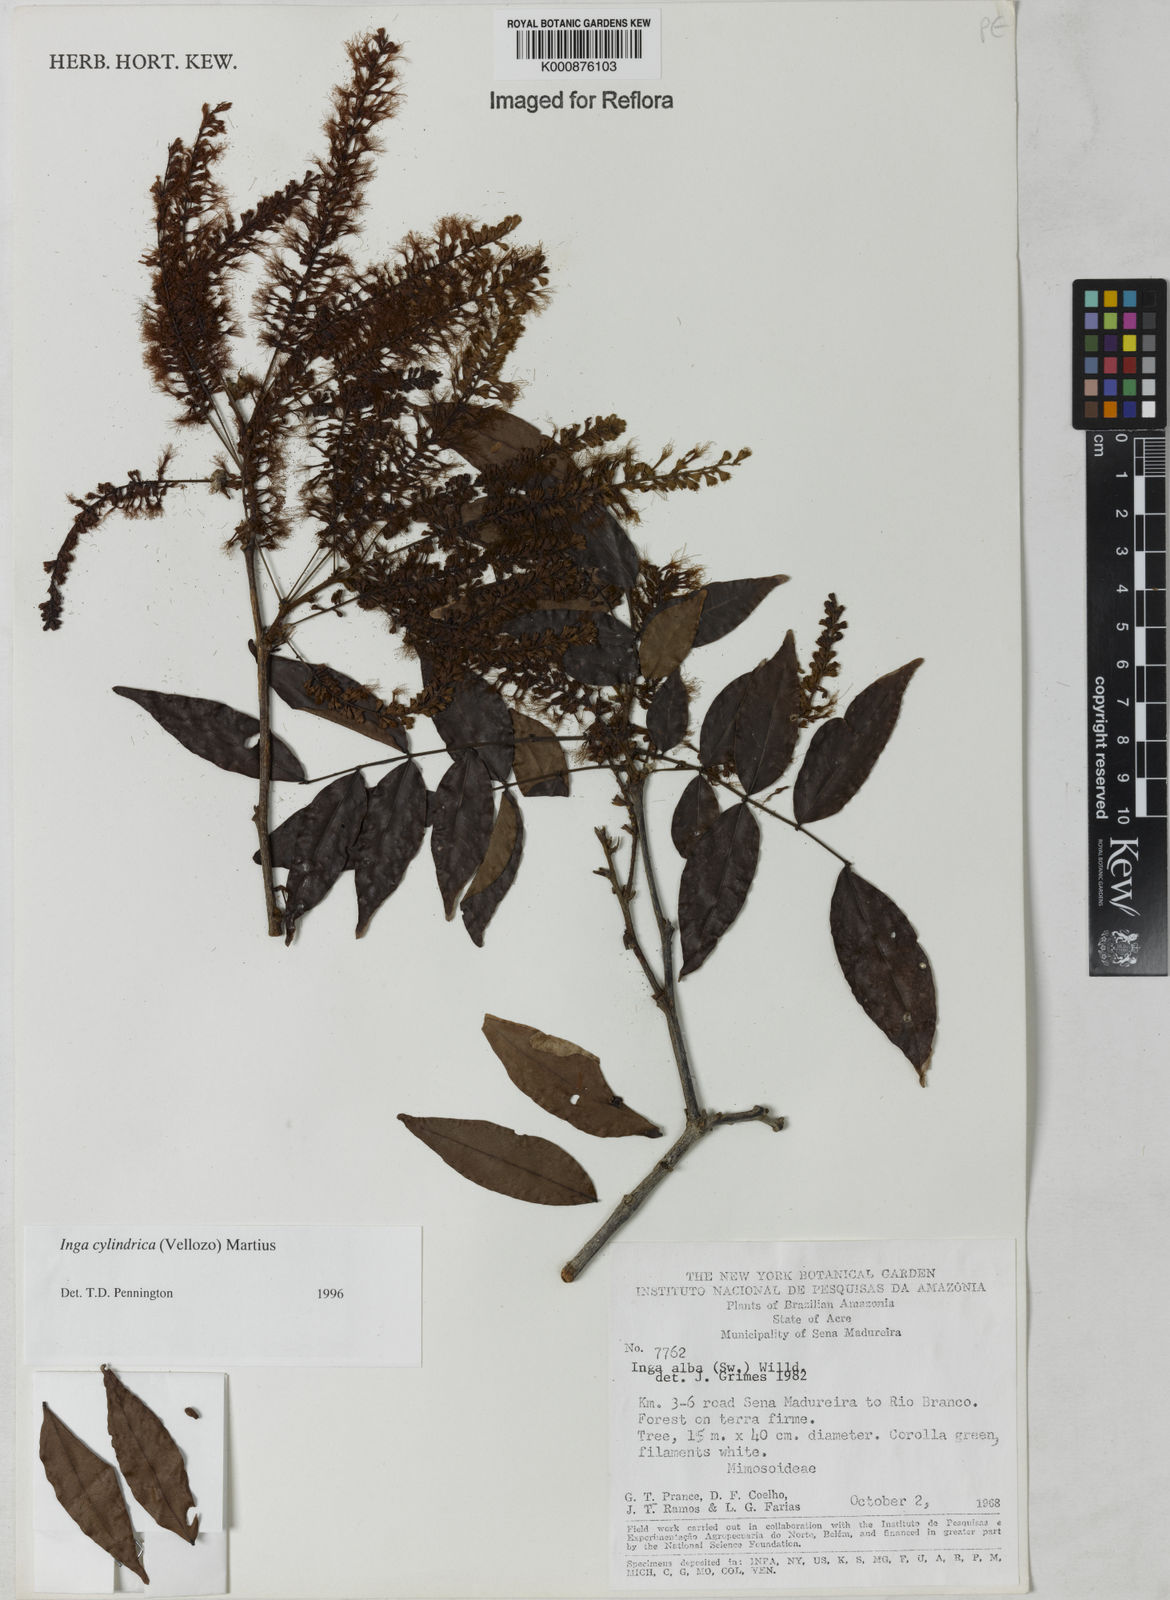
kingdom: Plantae
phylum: Tracheophyta
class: Magnoliopsida
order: Fabales
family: Fabaceae
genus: Inga
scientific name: Inga cylindrica
